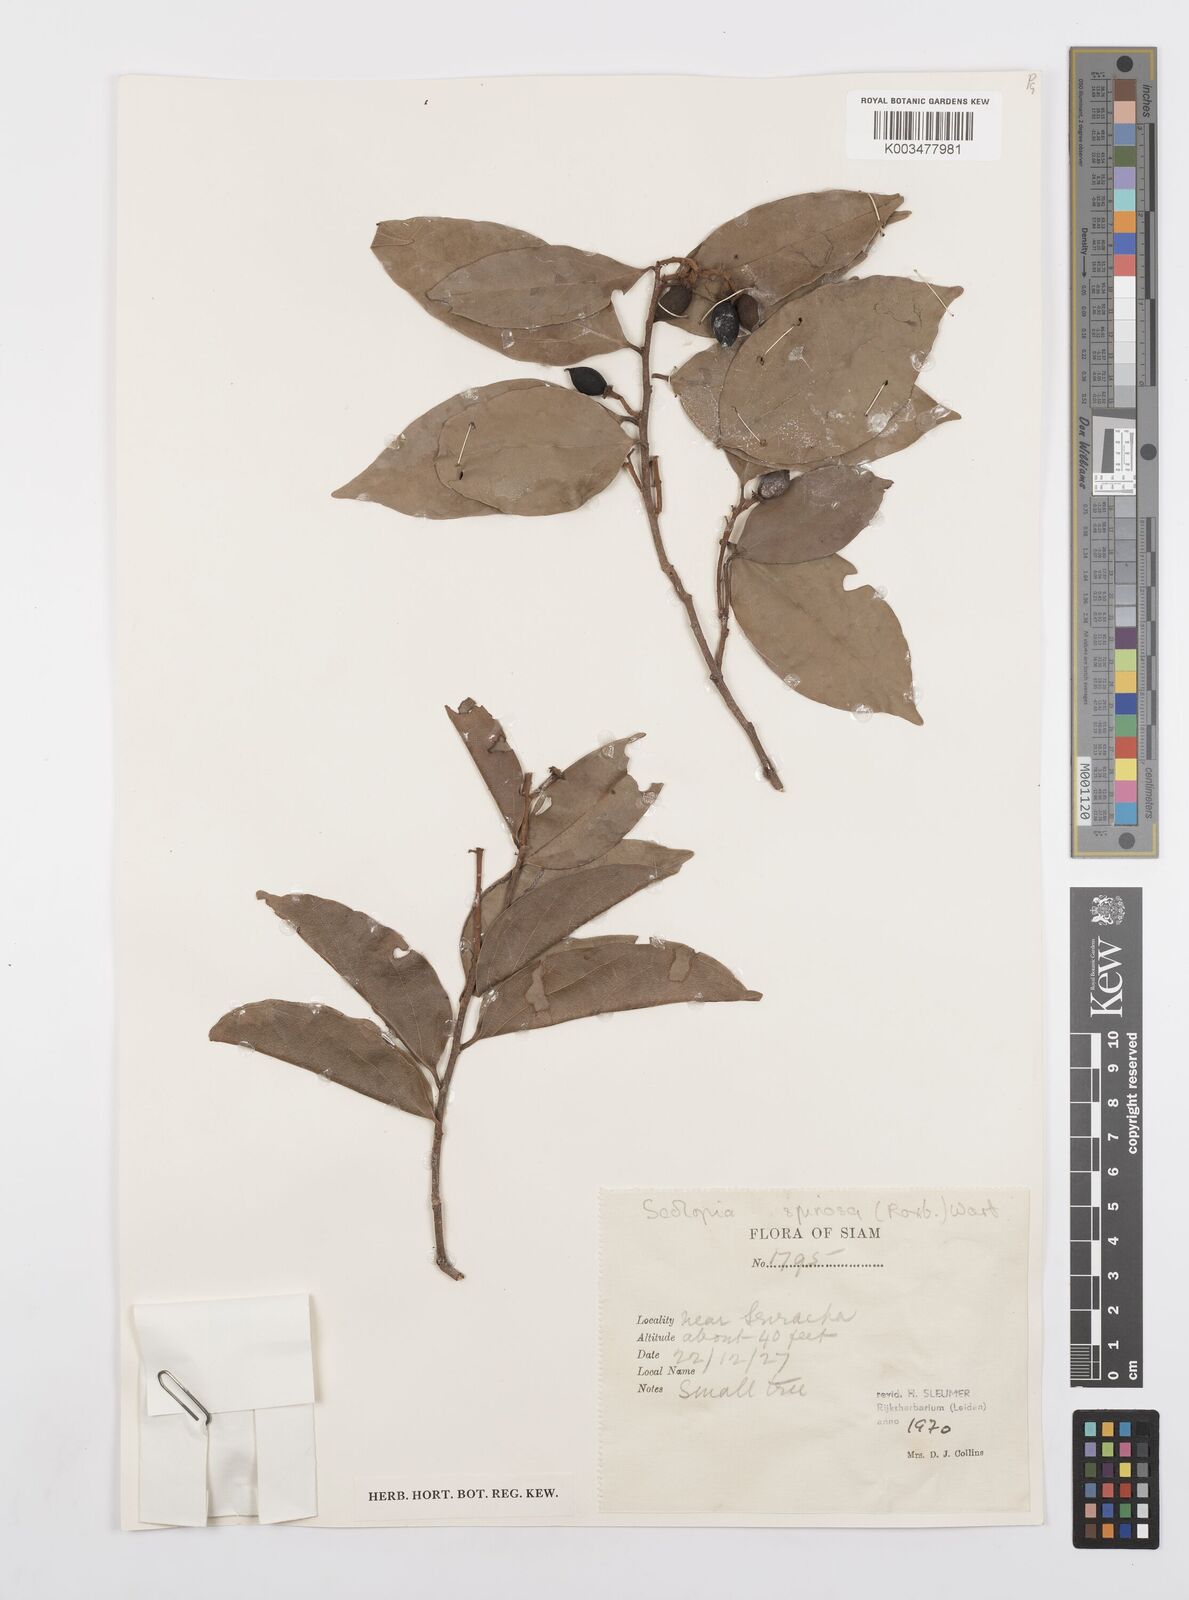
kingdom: Plantae
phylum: Tracheophyta
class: Magnoliopsida
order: Malpighiales
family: Salicaceae
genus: Scolopia
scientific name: Scolopia spinosa
